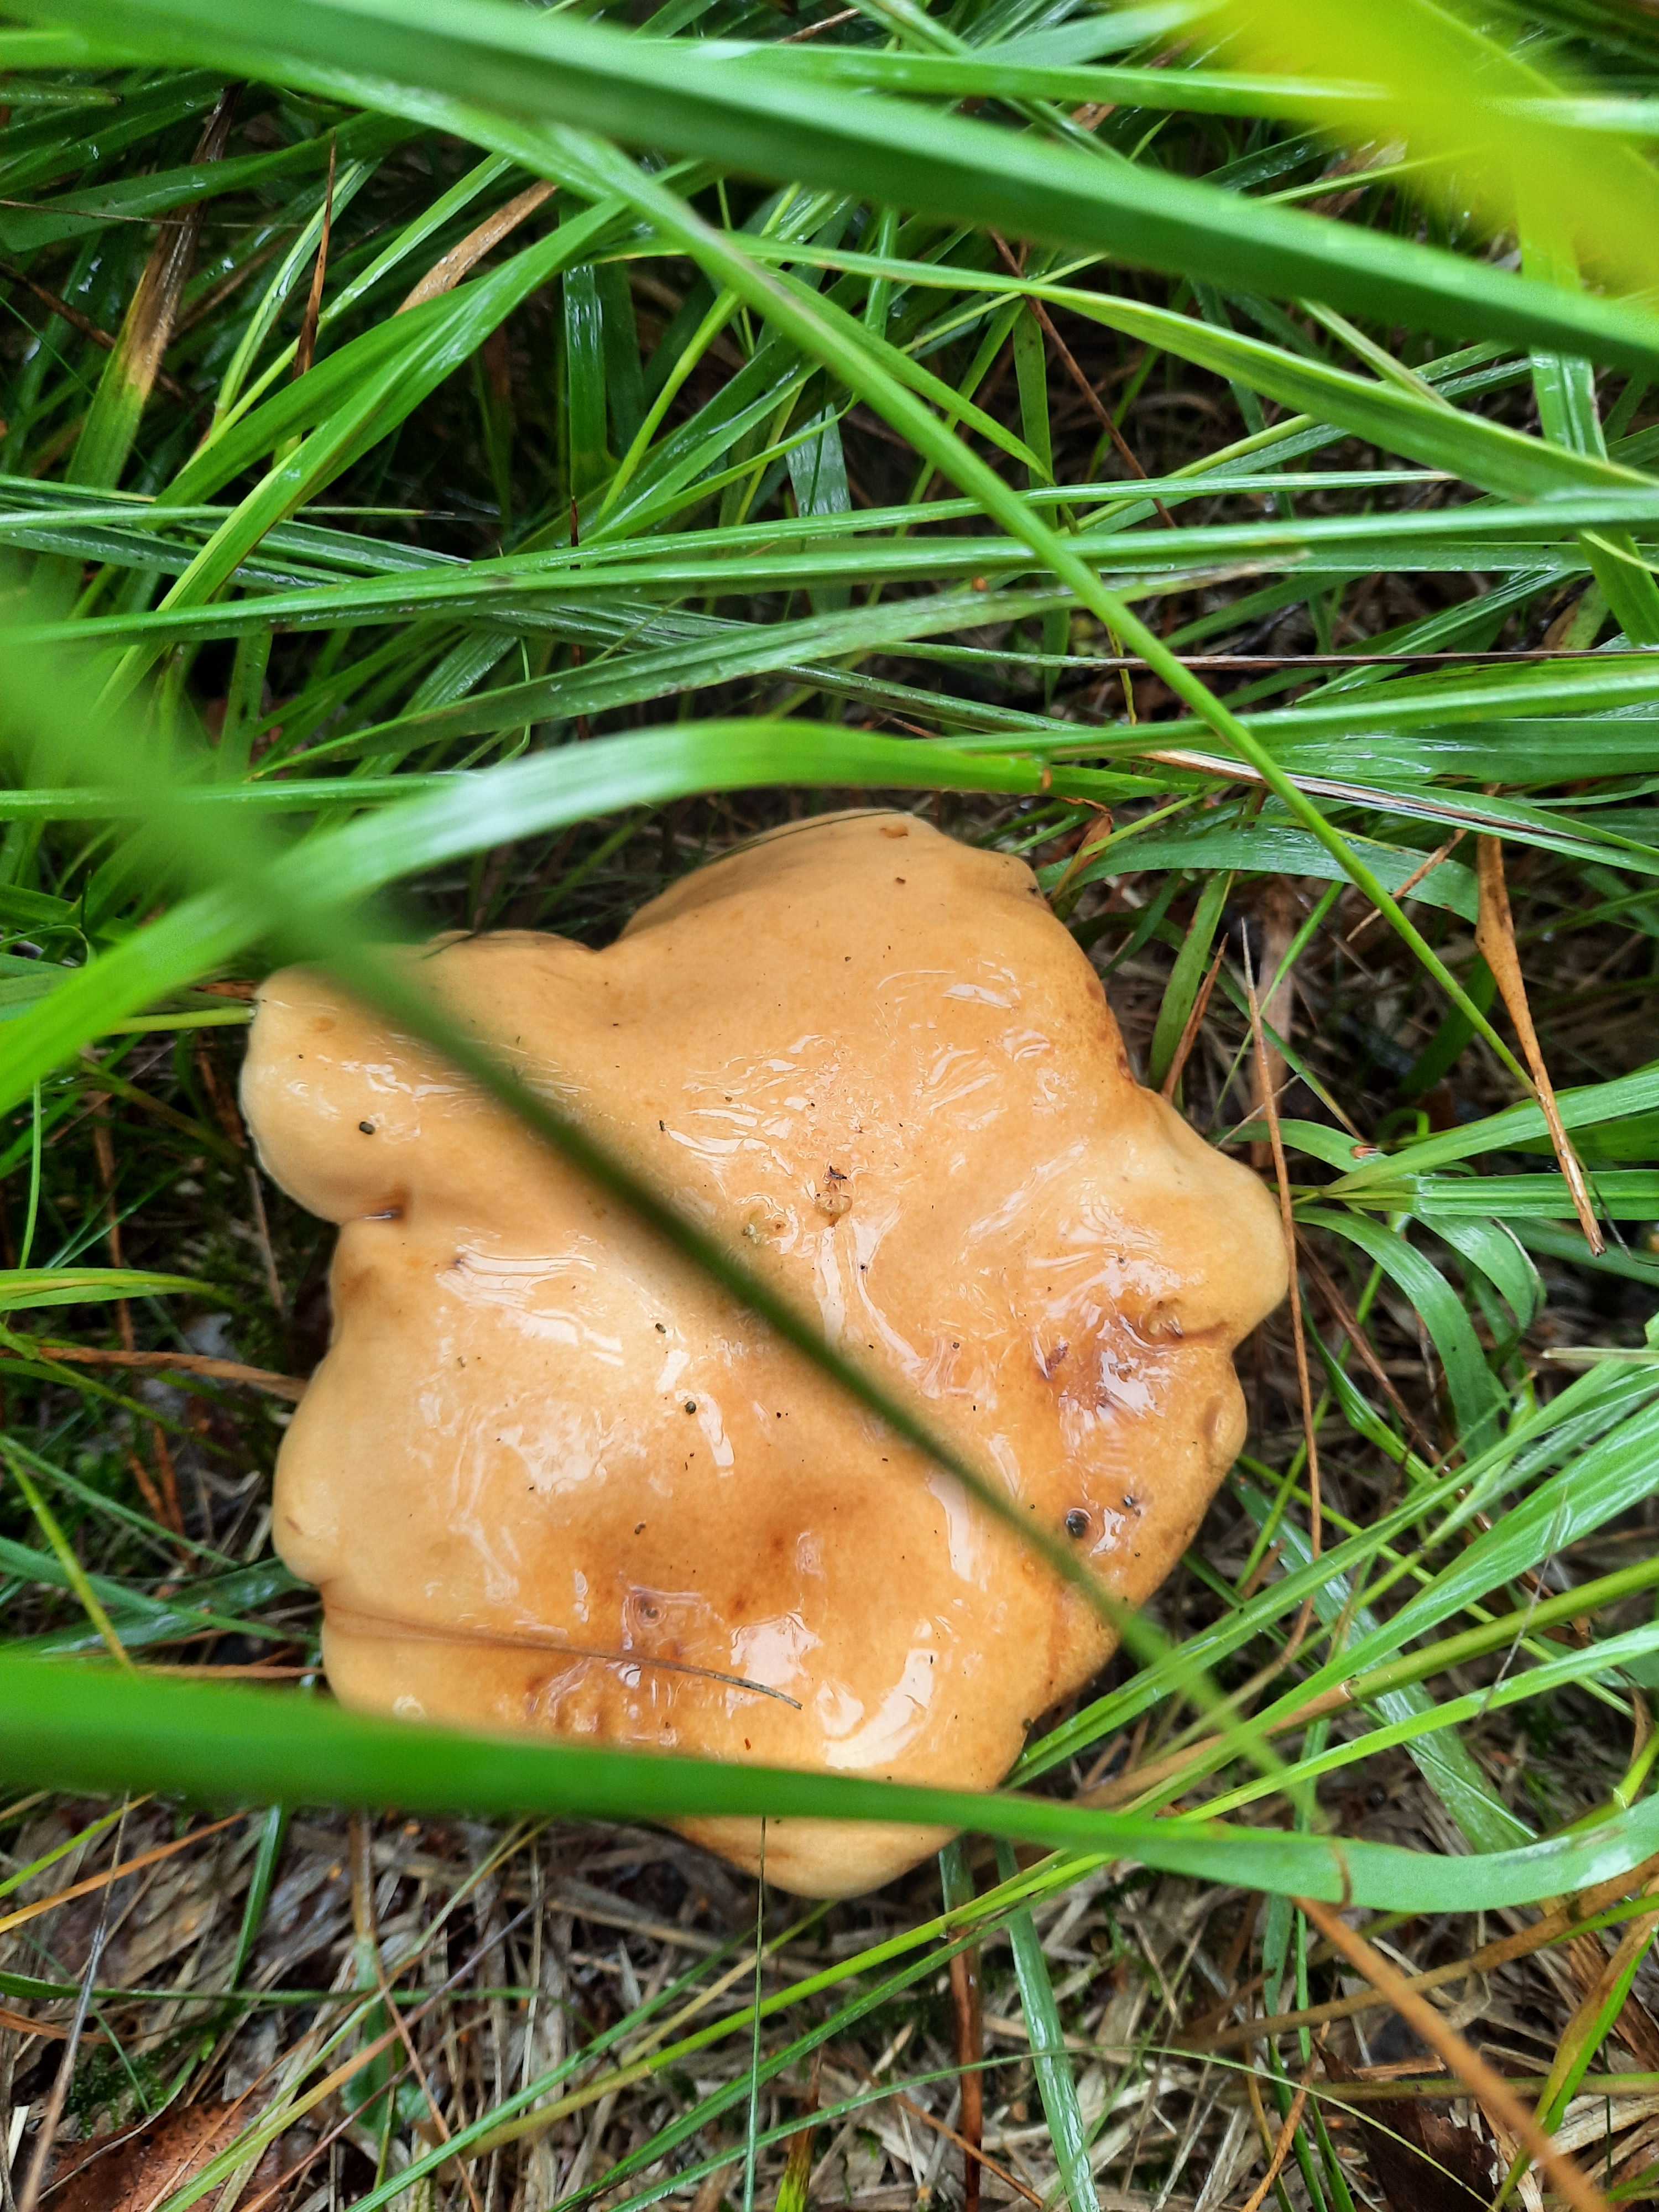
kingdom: Fungi
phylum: Basidiomycota
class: Agaricomycetes
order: Boletales
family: Suillaceae
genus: Suillus
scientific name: Suillus bovinus
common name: grovporet slimrørhat
